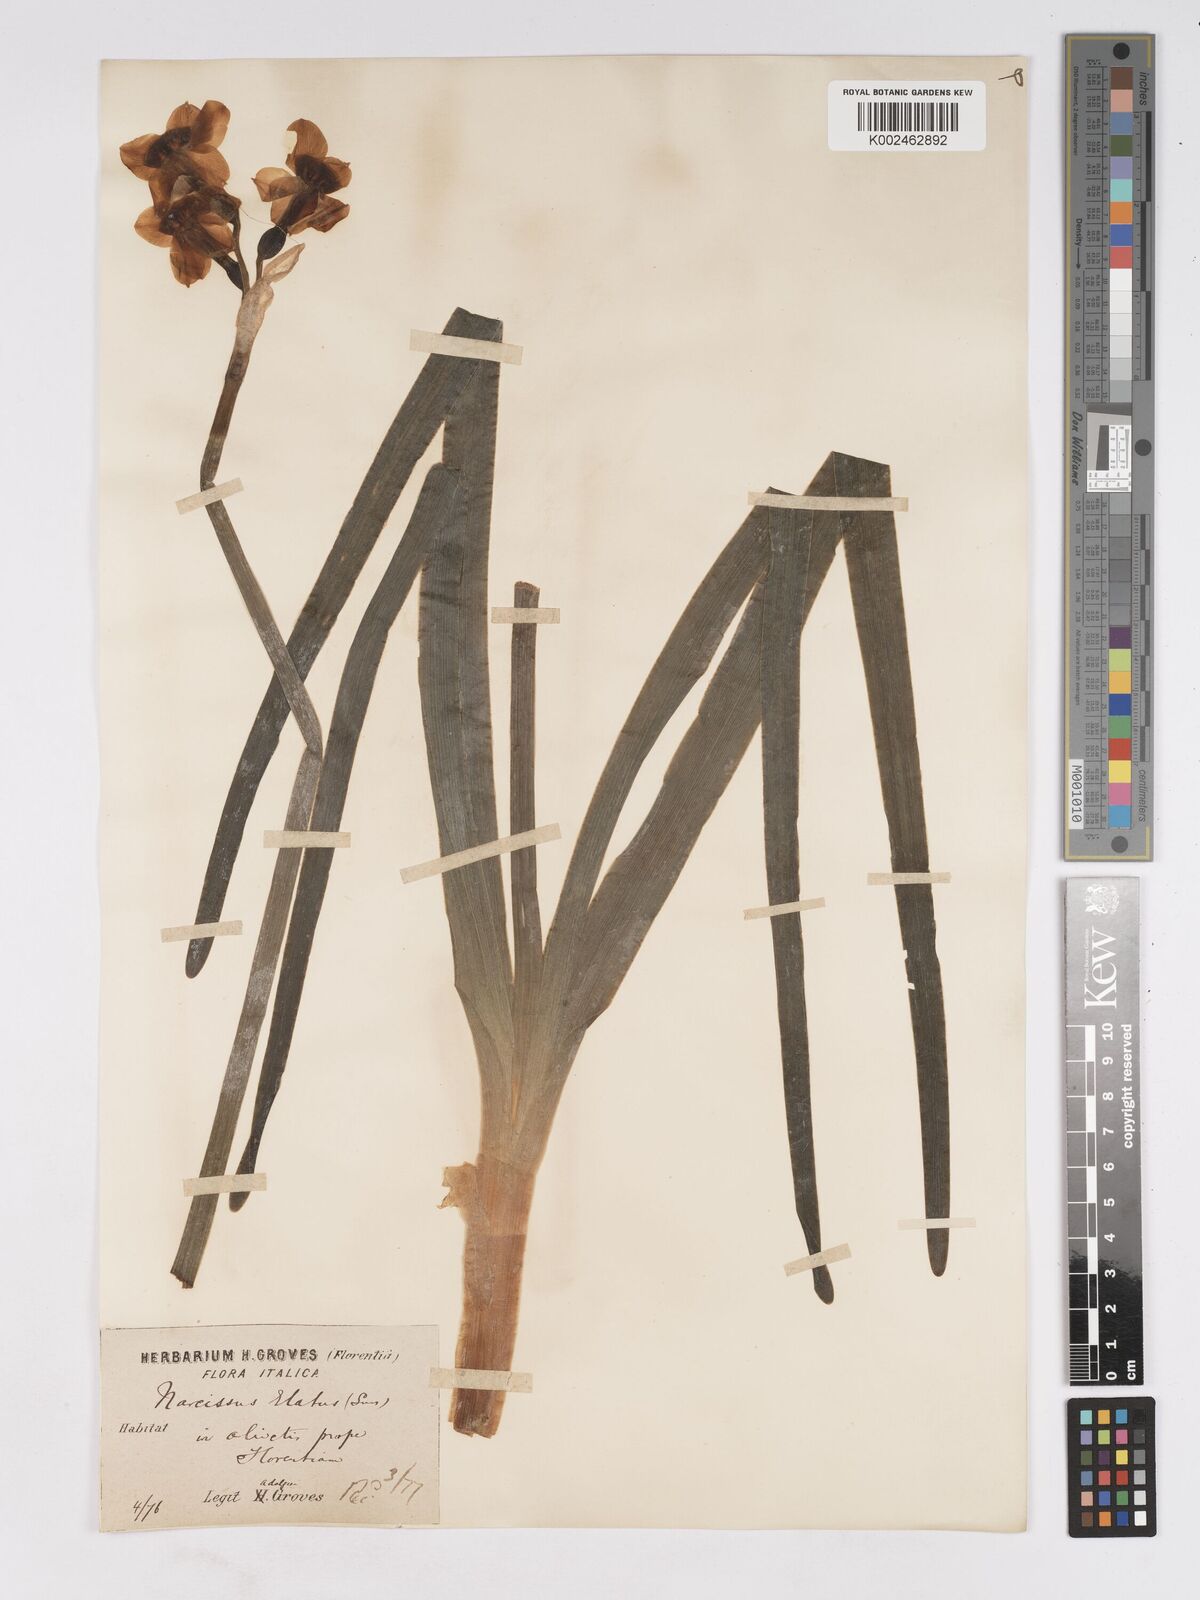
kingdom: Plantae
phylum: Tracheophyta
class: Liliopsida
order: Asparagales
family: Amaryllidaceae
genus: Narcissus
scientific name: Narcissus
